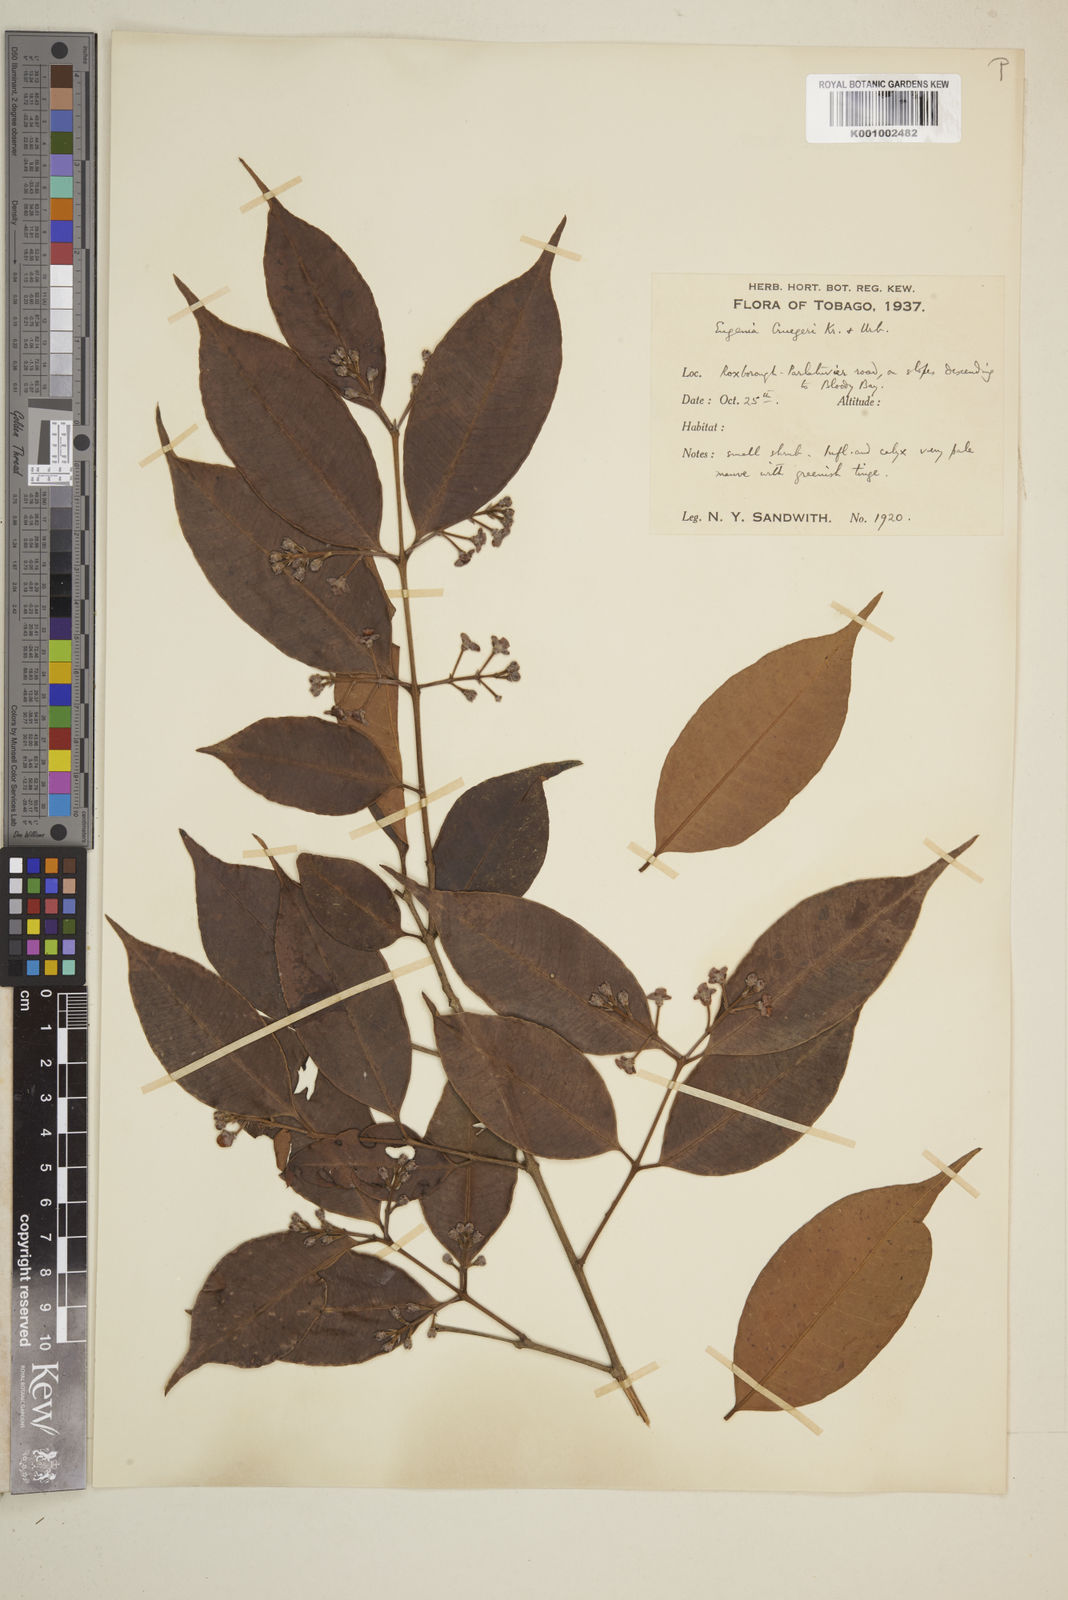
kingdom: Plantae
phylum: Tracheophyta
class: Magnoliopsida
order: Myrtales
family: Myrtaceae
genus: Eugenia
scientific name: Eugenia limbosa
